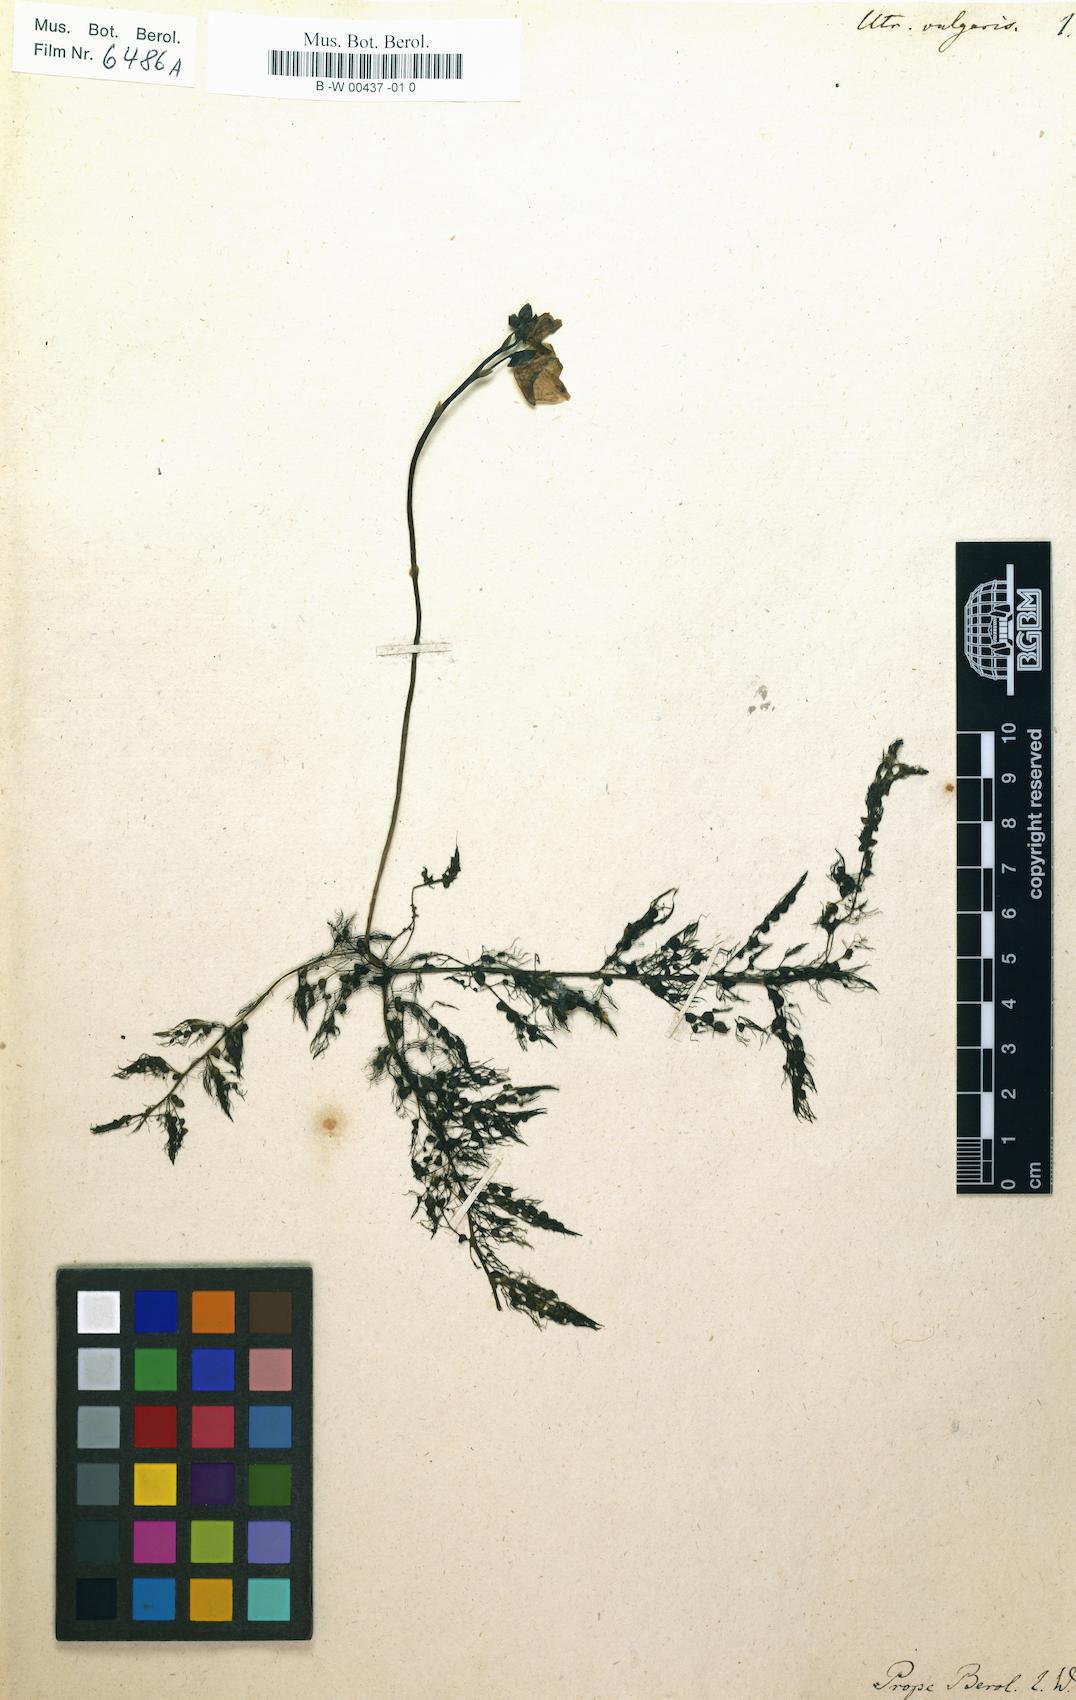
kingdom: Plantae
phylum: Tracheophyta
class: Magnoliopsida
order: Lamiales
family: Lentibulariaceae
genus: Utricularia
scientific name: Utricularia vulgaris
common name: Greater bladderwort
